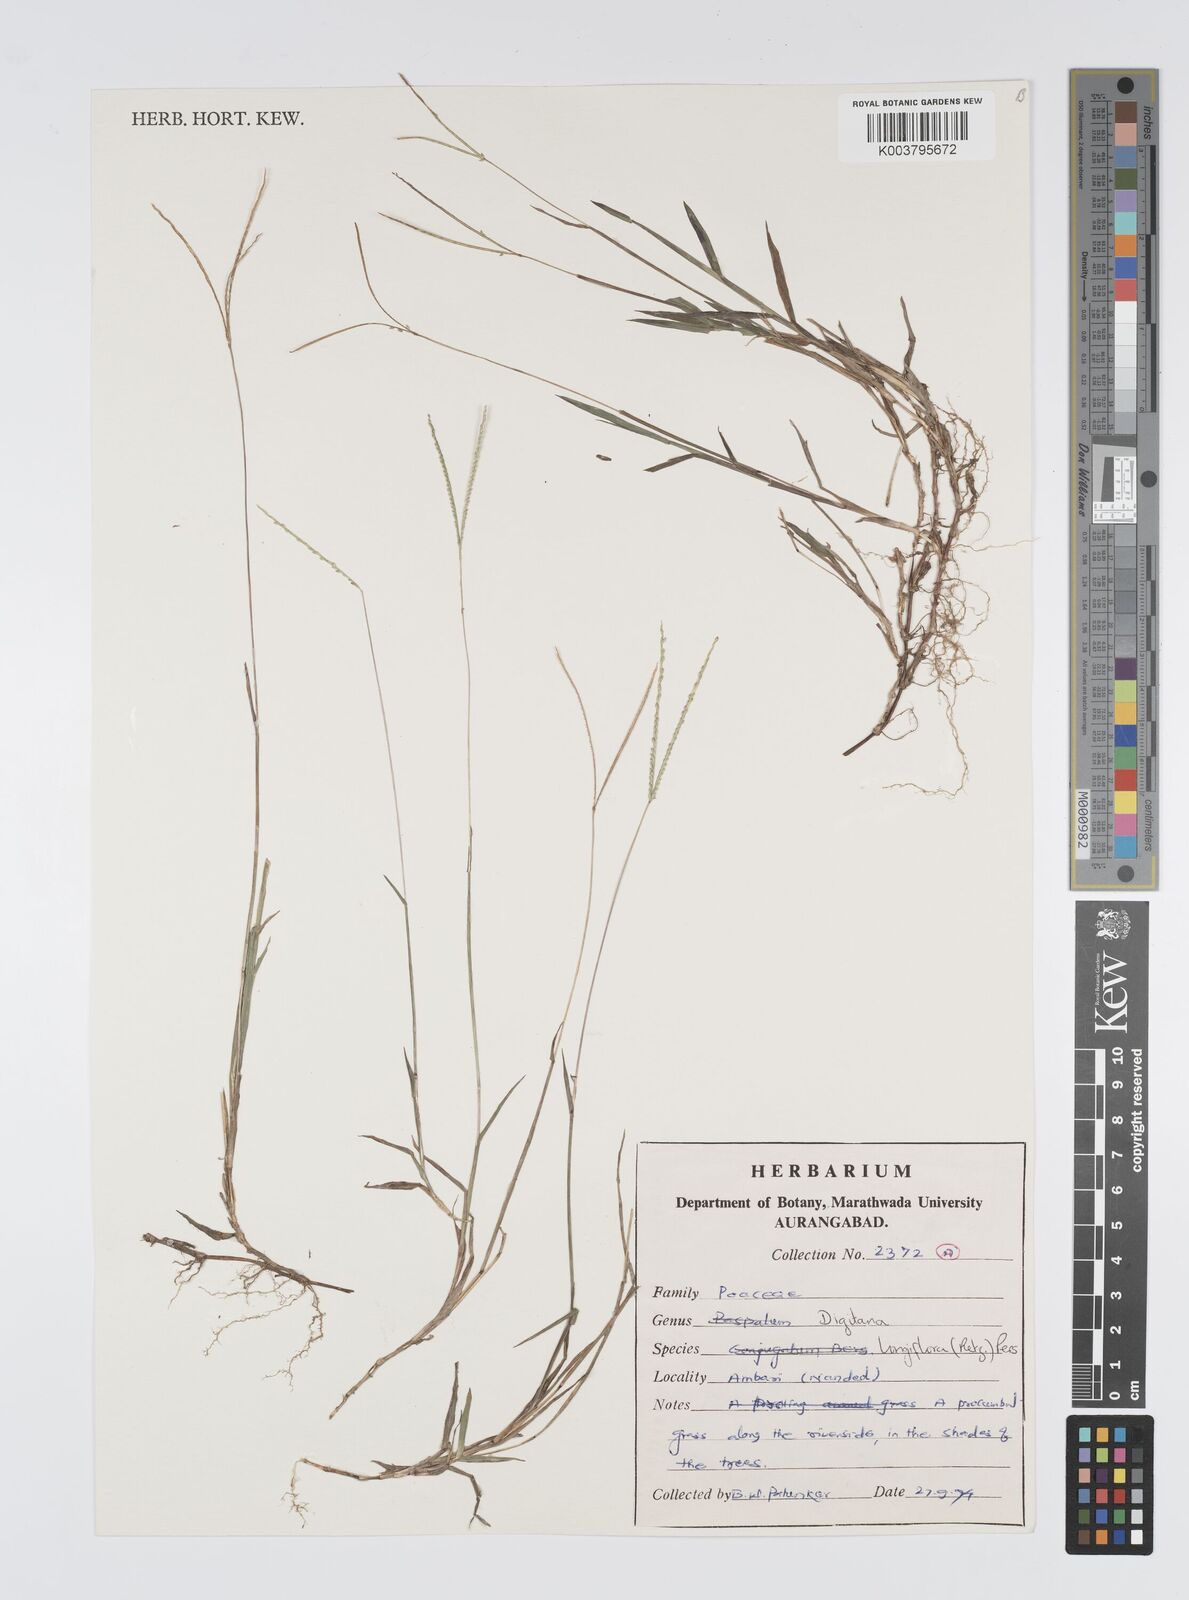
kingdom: Plantae
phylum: Tracheophyta
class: Liliopsida
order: Poales
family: Poaceae
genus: Digitaria
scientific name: Digitaria longiflora
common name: Wire crabgrass
